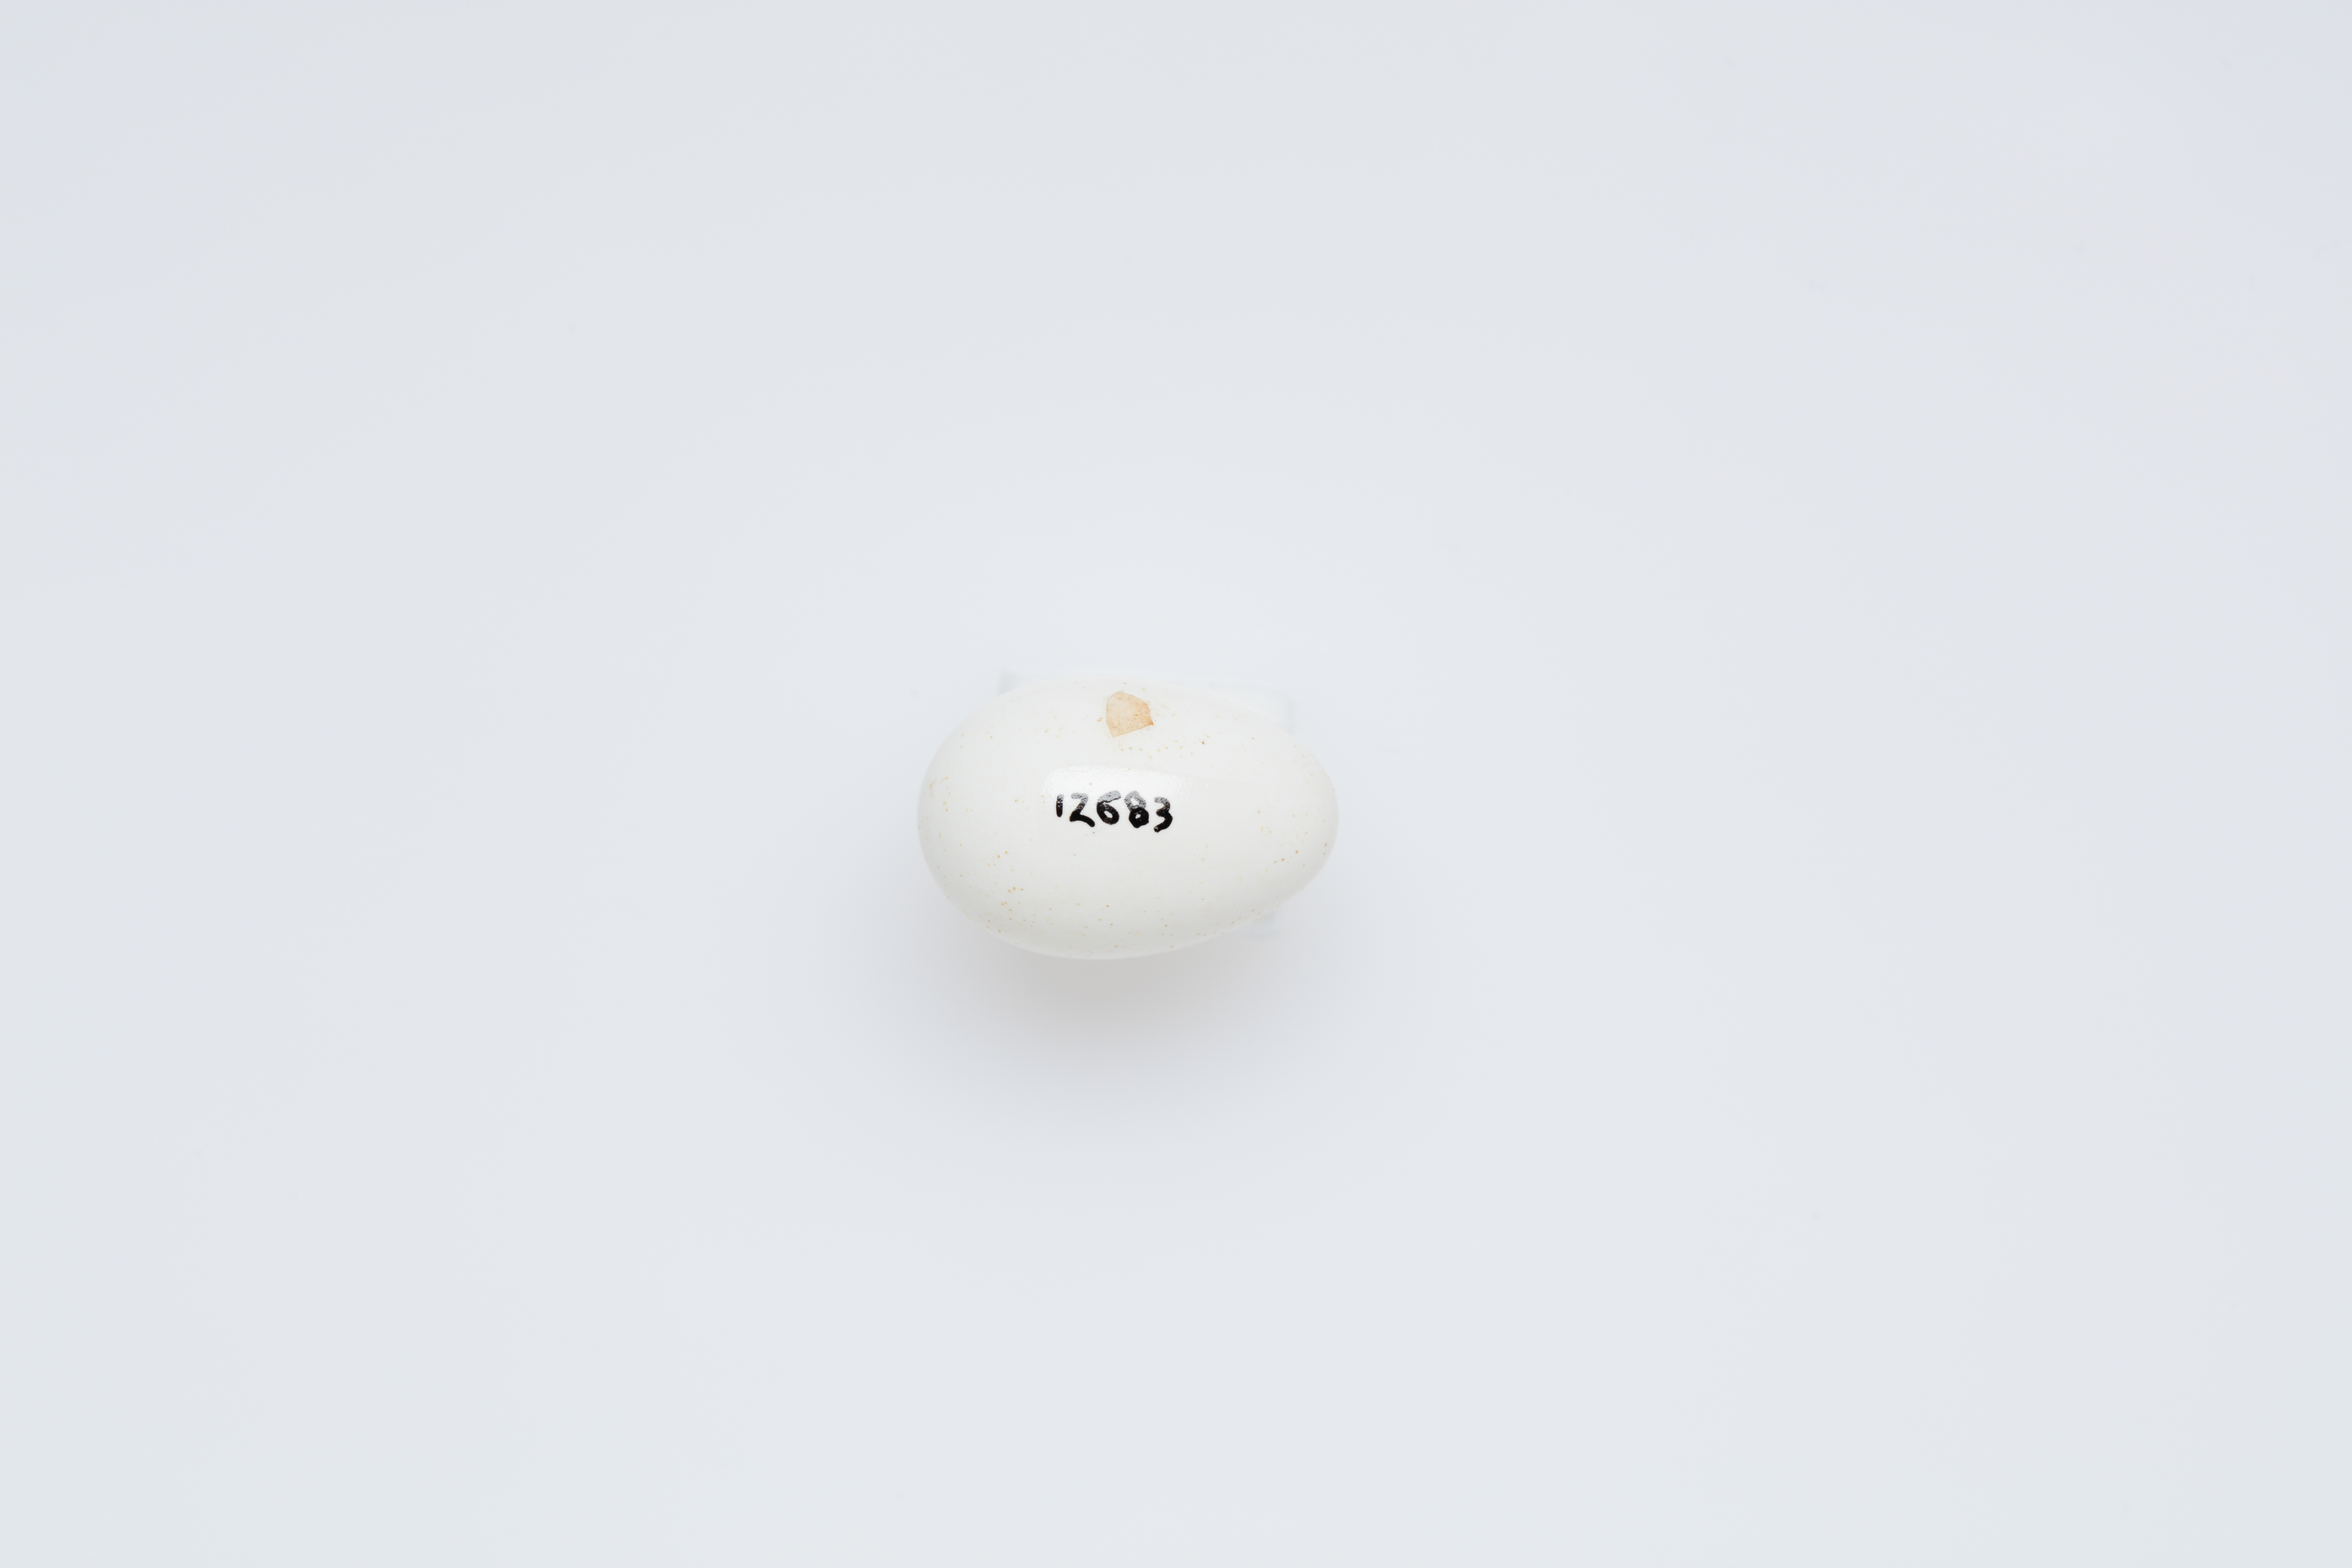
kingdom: Animalia
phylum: Chordata
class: Aves
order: Passeriformes
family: Acanthizidae
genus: Acanthiza
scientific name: Acanthiza chrysorrhoa
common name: Yellow-rumped thornbill
